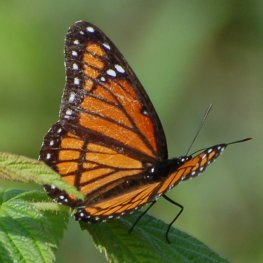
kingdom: Animalia
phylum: Arthropoda
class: Insecta
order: Lepidoptera
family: Nymphalidae
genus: Limenitis
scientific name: Limenitis archippus
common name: Viceroy
